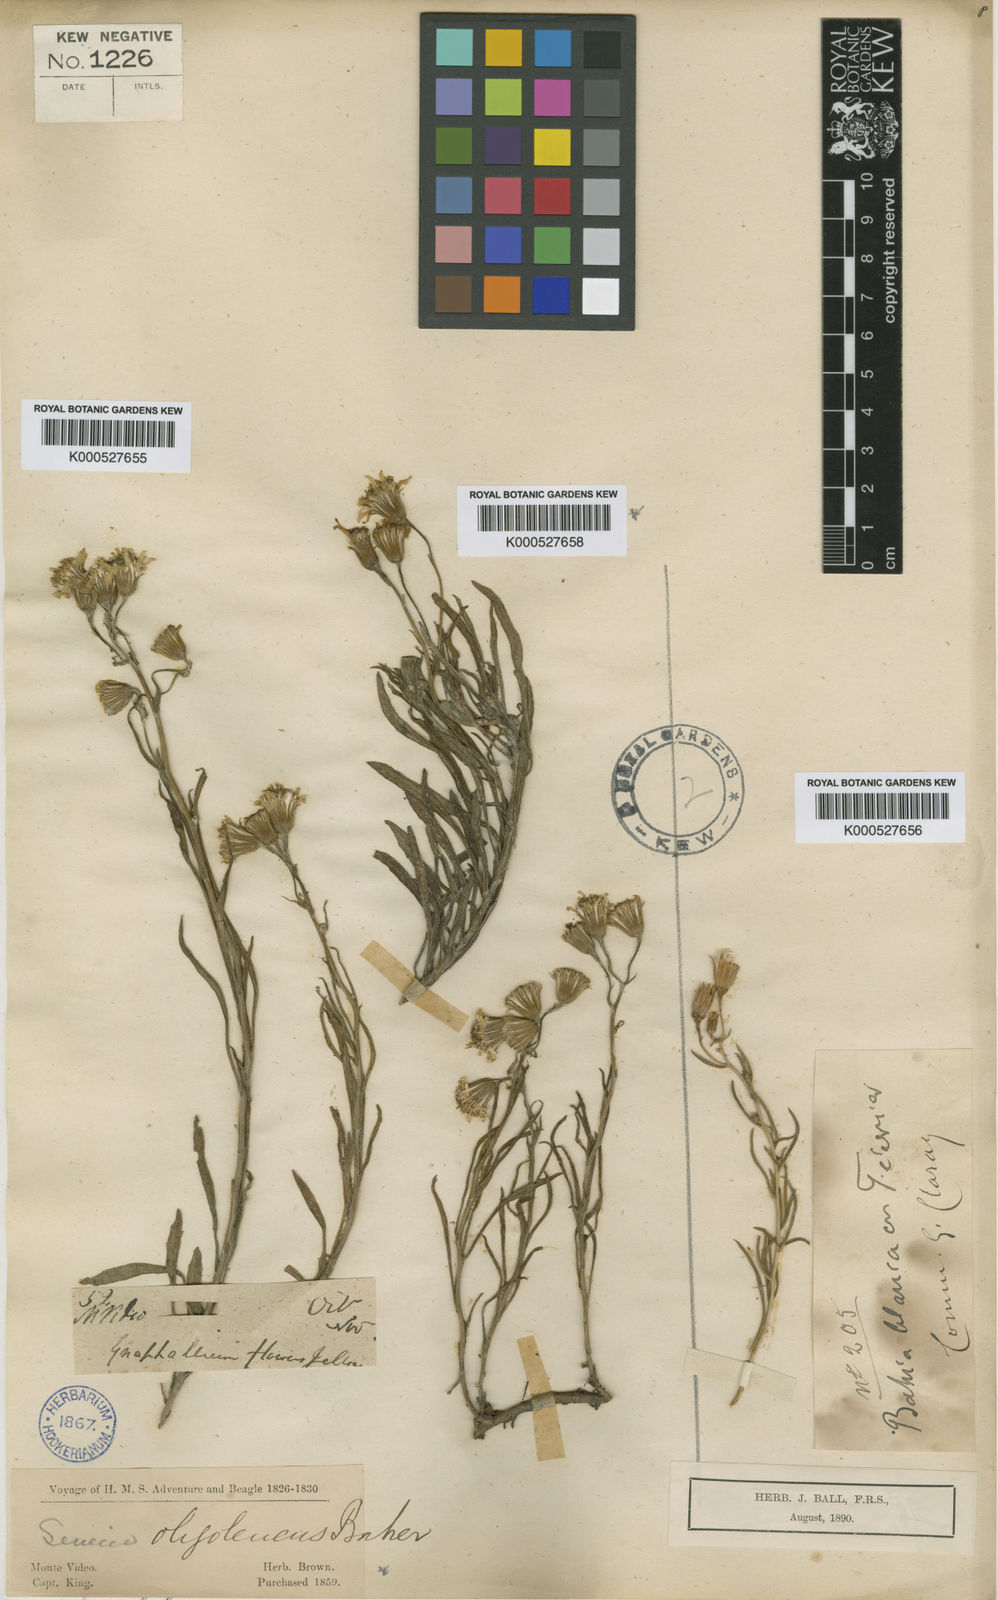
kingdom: Plantae
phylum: Tracheophyta
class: Magnoliopsida
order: Asterales
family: Asteraceae
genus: Senecio
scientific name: Senecio oligoleucus
